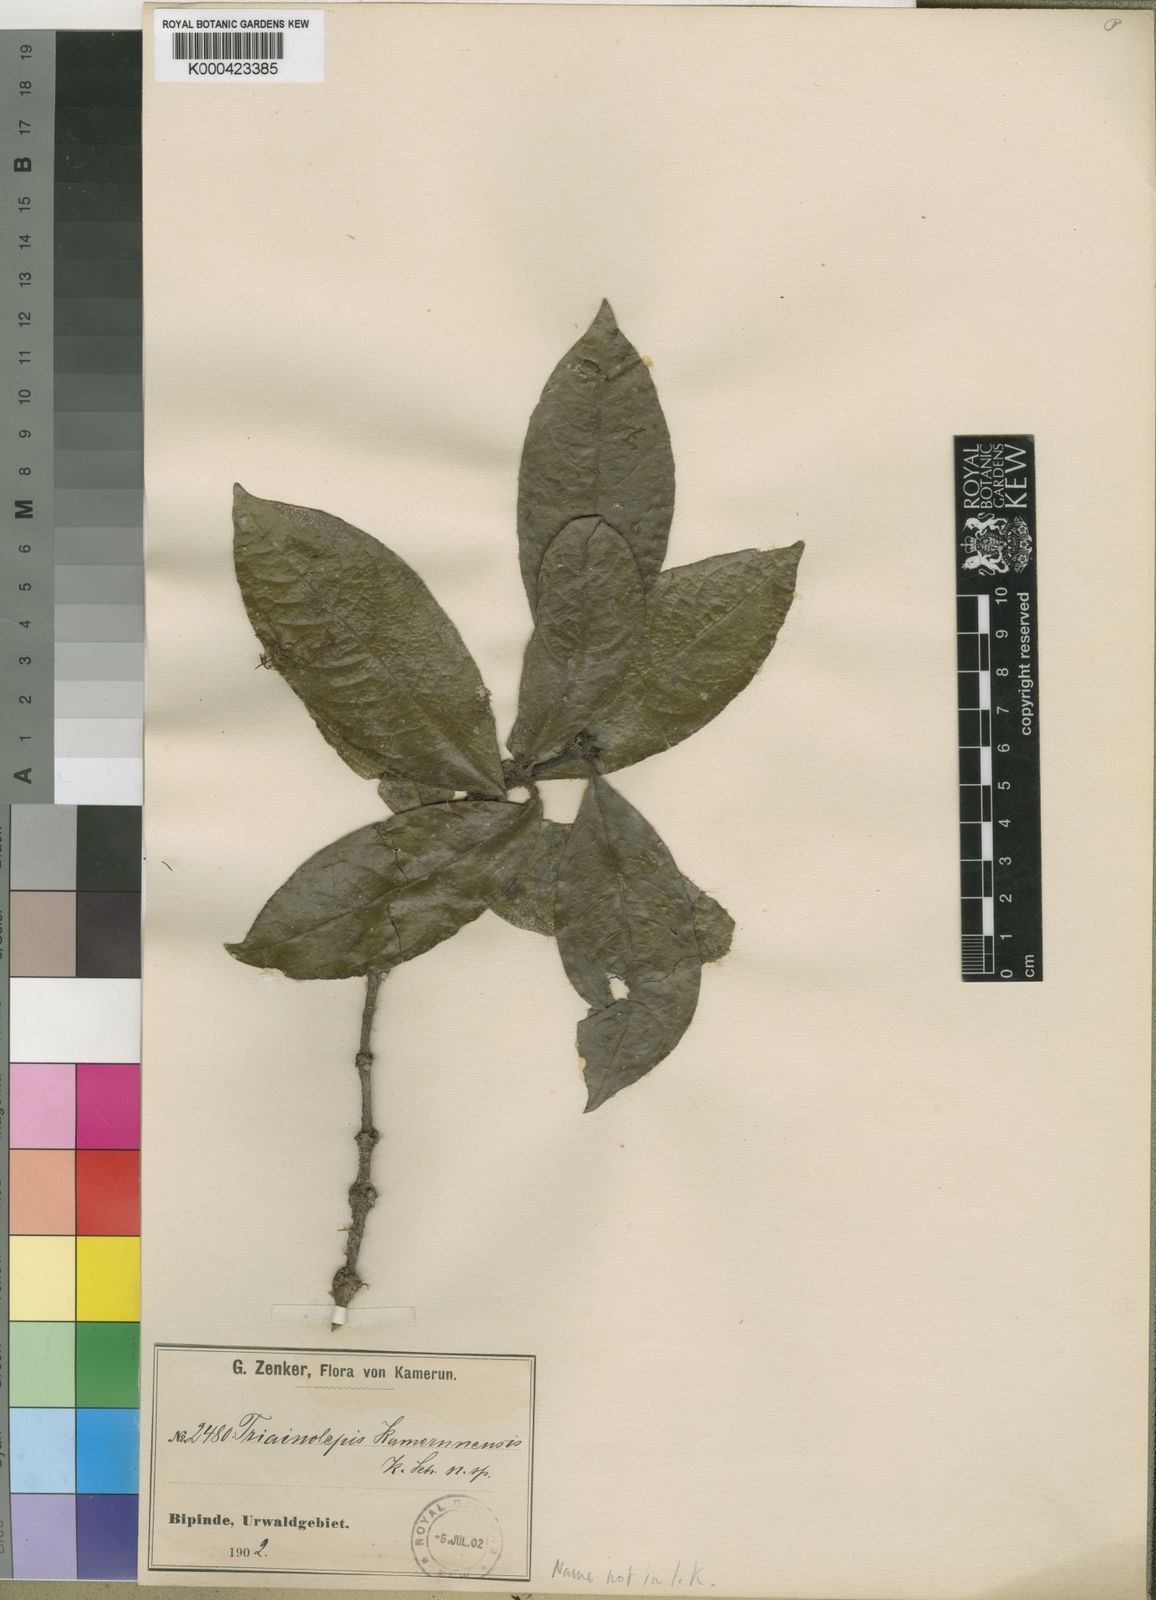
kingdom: Plantae
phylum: Tracheophyta
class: Magnoliopsida
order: Gentianales
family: Rubiaceae
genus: Triainolepis
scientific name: Triainolepis
